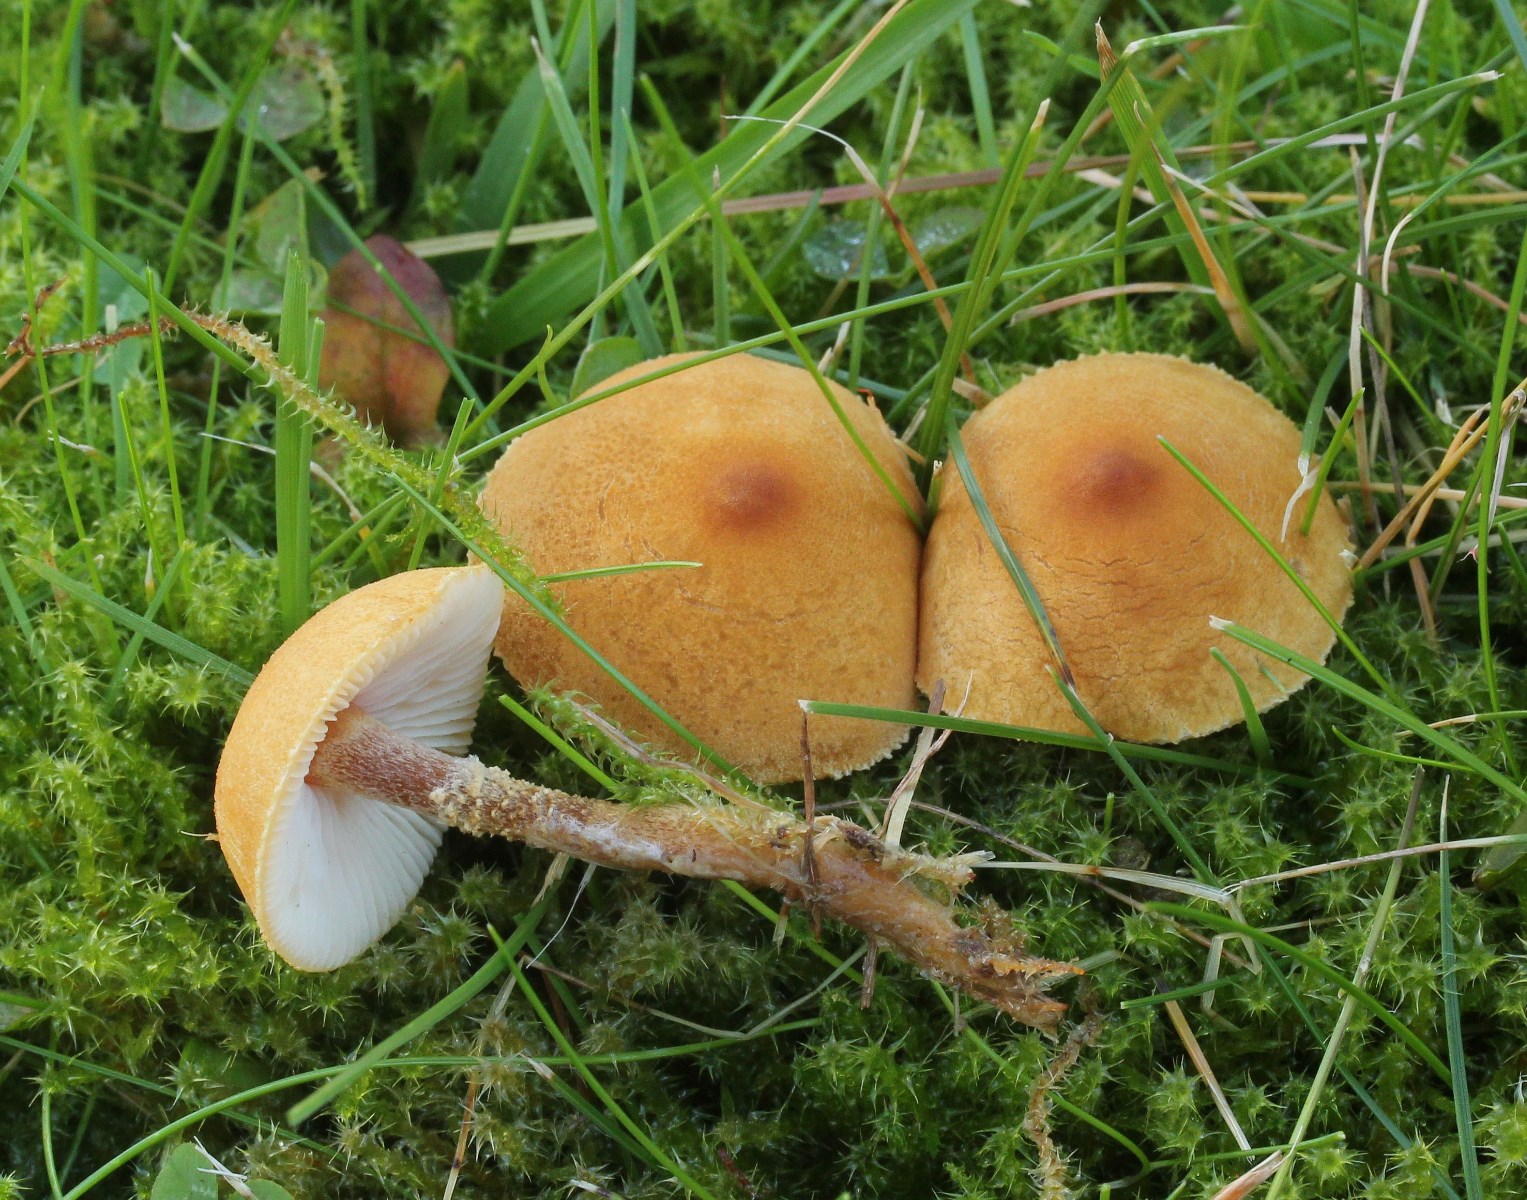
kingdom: Fungi
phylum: Basidiomycota
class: Agaricomycetes
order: Agaricales
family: Tricholomataceae
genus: Cystoderma
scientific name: Cystoderma amianthinum
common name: okkergul grynhat
